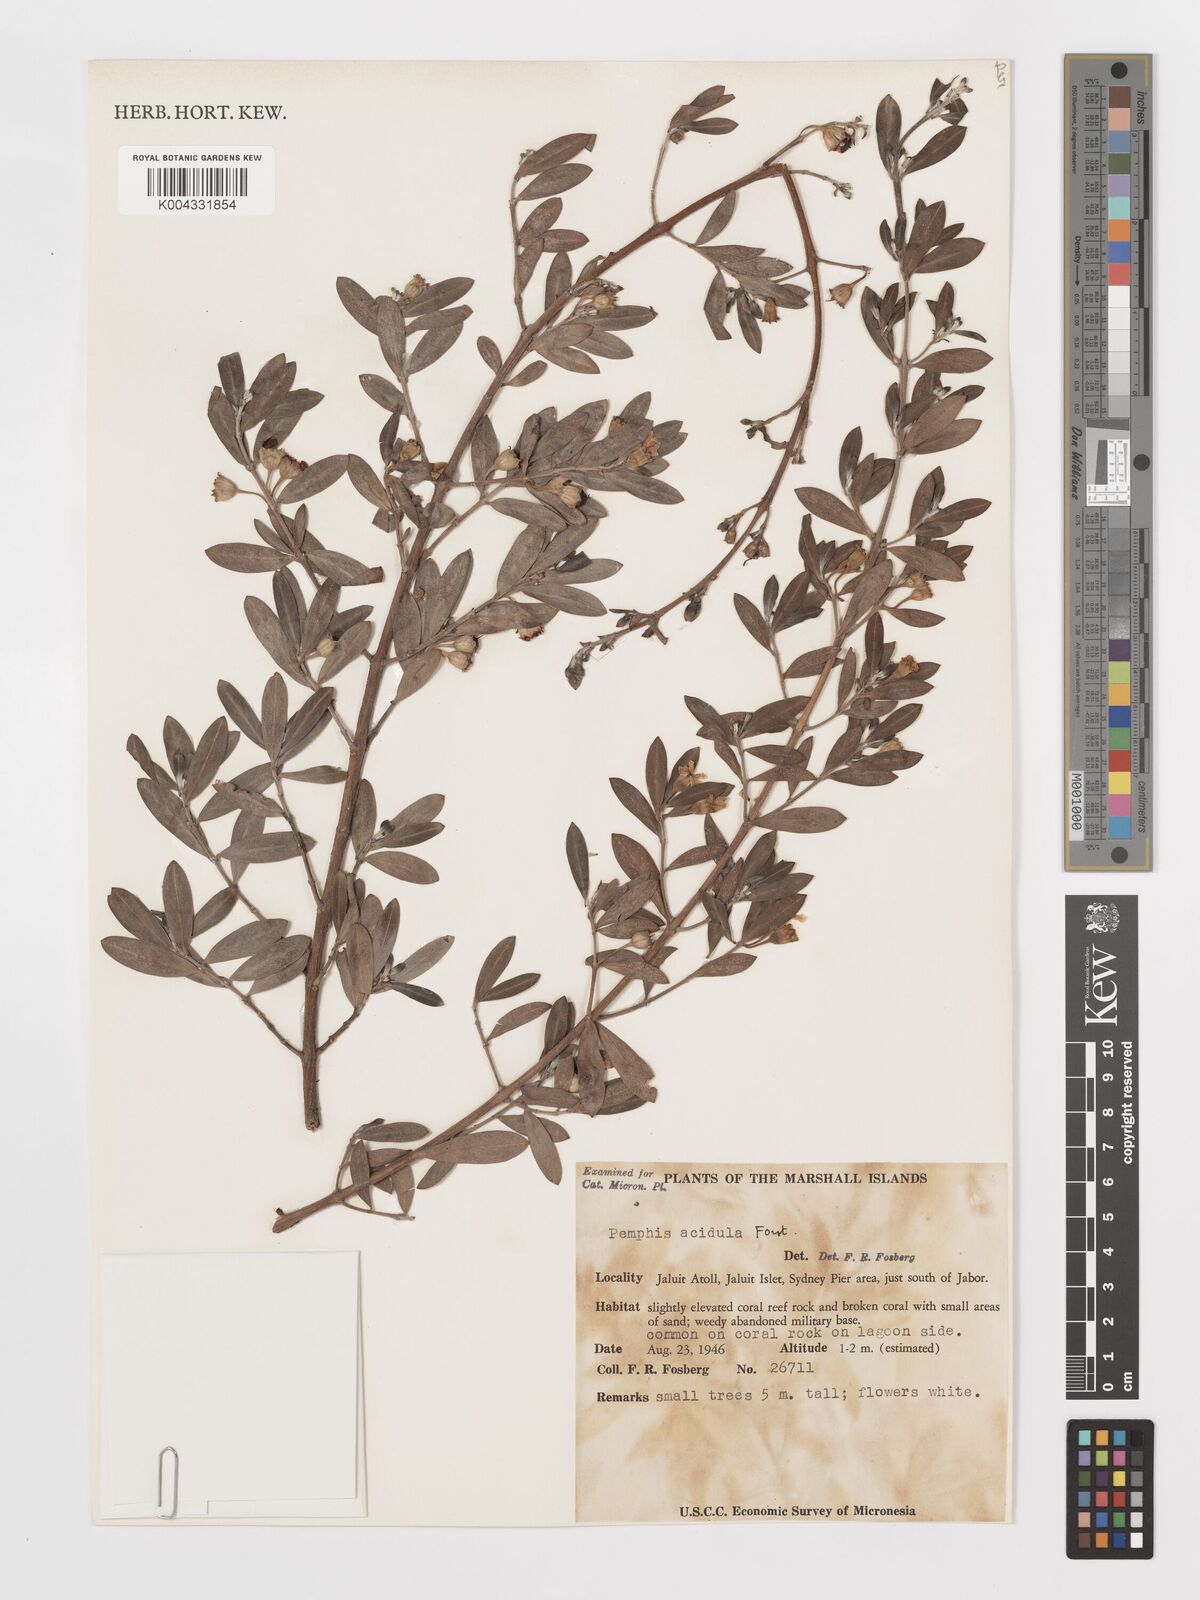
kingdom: Plantae
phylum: Tracheophyta
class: Magnoliopsida
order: Myrtales
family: Lythraceae
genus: Pemphis
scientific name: Pemphis acidula
